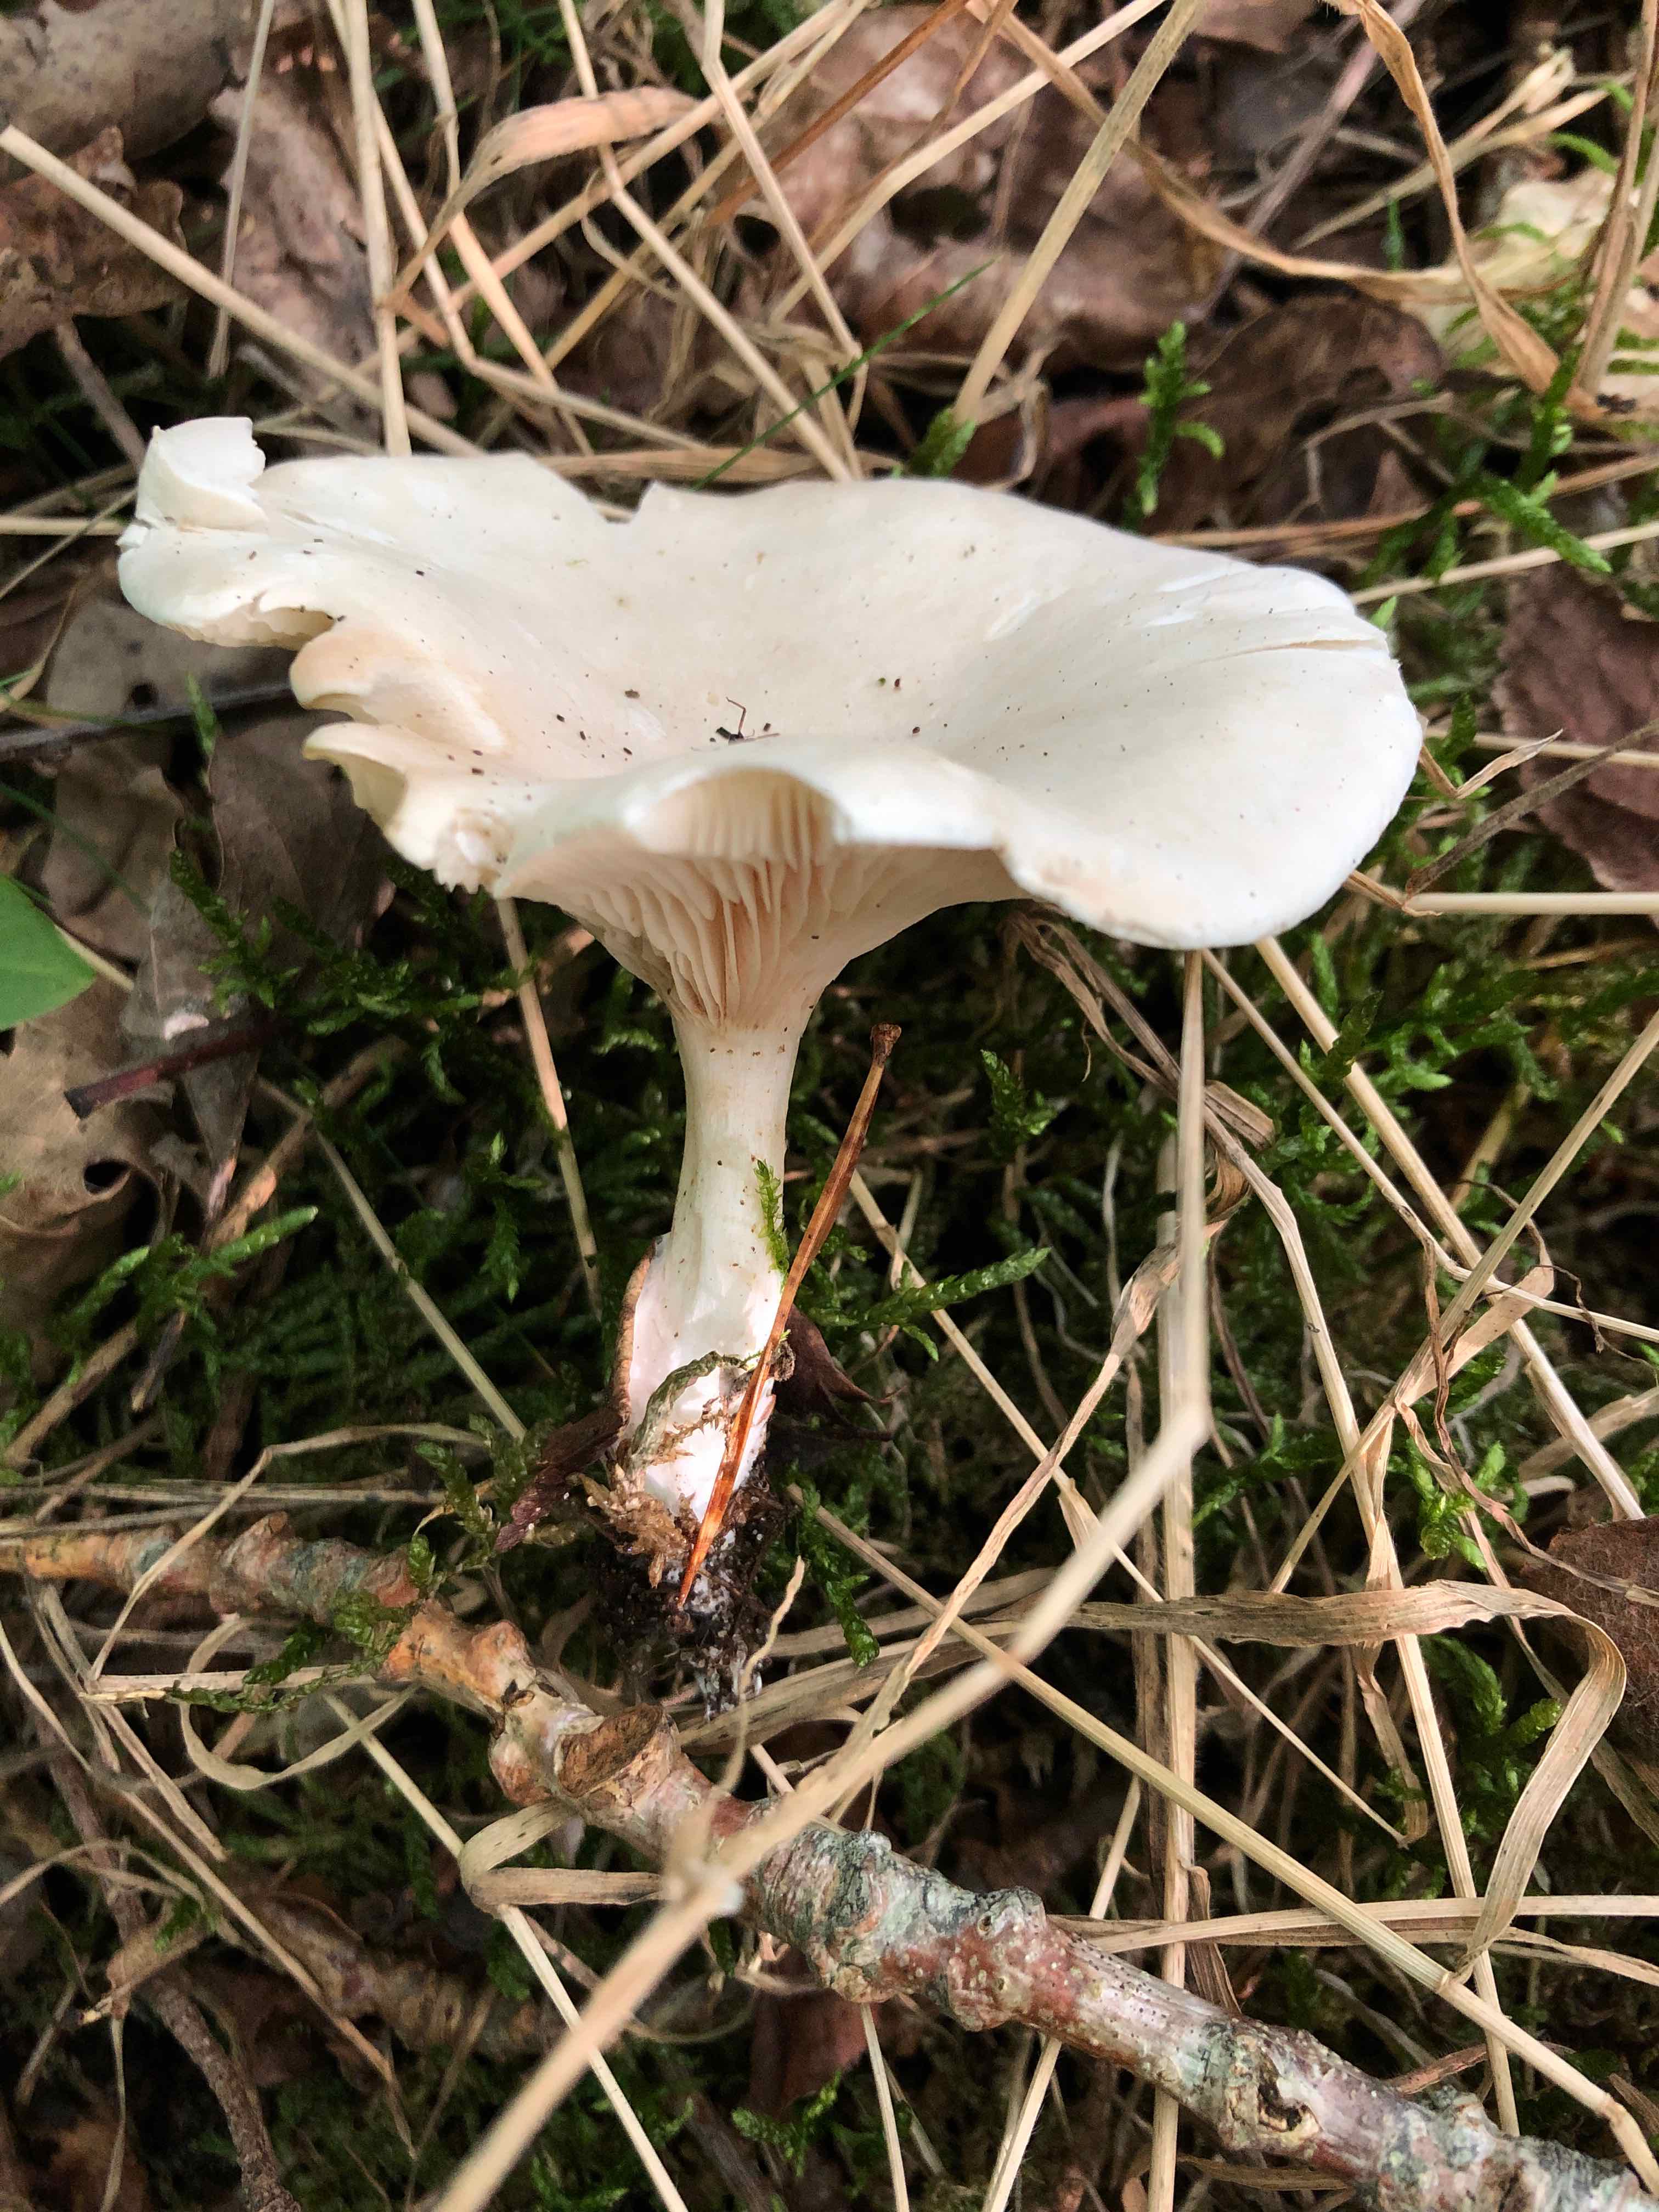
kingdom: Fungi
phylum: Basidiomycota
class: Agaricomycetes
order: Agaricales
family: Entolomataceae
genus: Clitopilus
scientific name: Clitopilus prunulus
